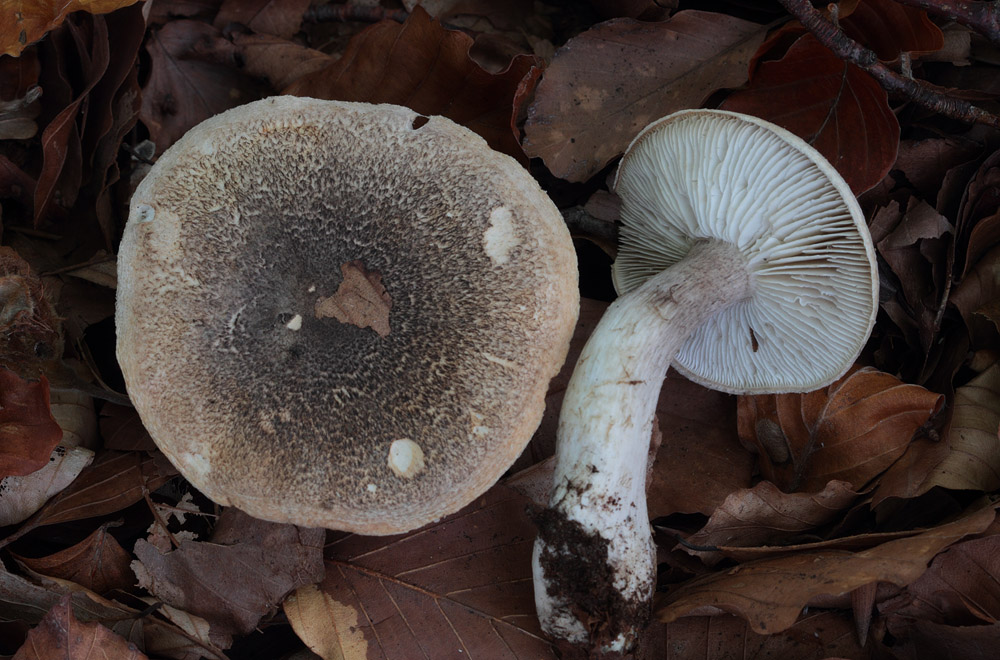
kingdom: Fungi
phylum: Basidiomycota
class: Agaricomycetes
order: Agaricales
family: Tricholomataceae
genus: Tricholoma
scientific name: Tricholoma orirubens
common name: rødbladet ridderhat
